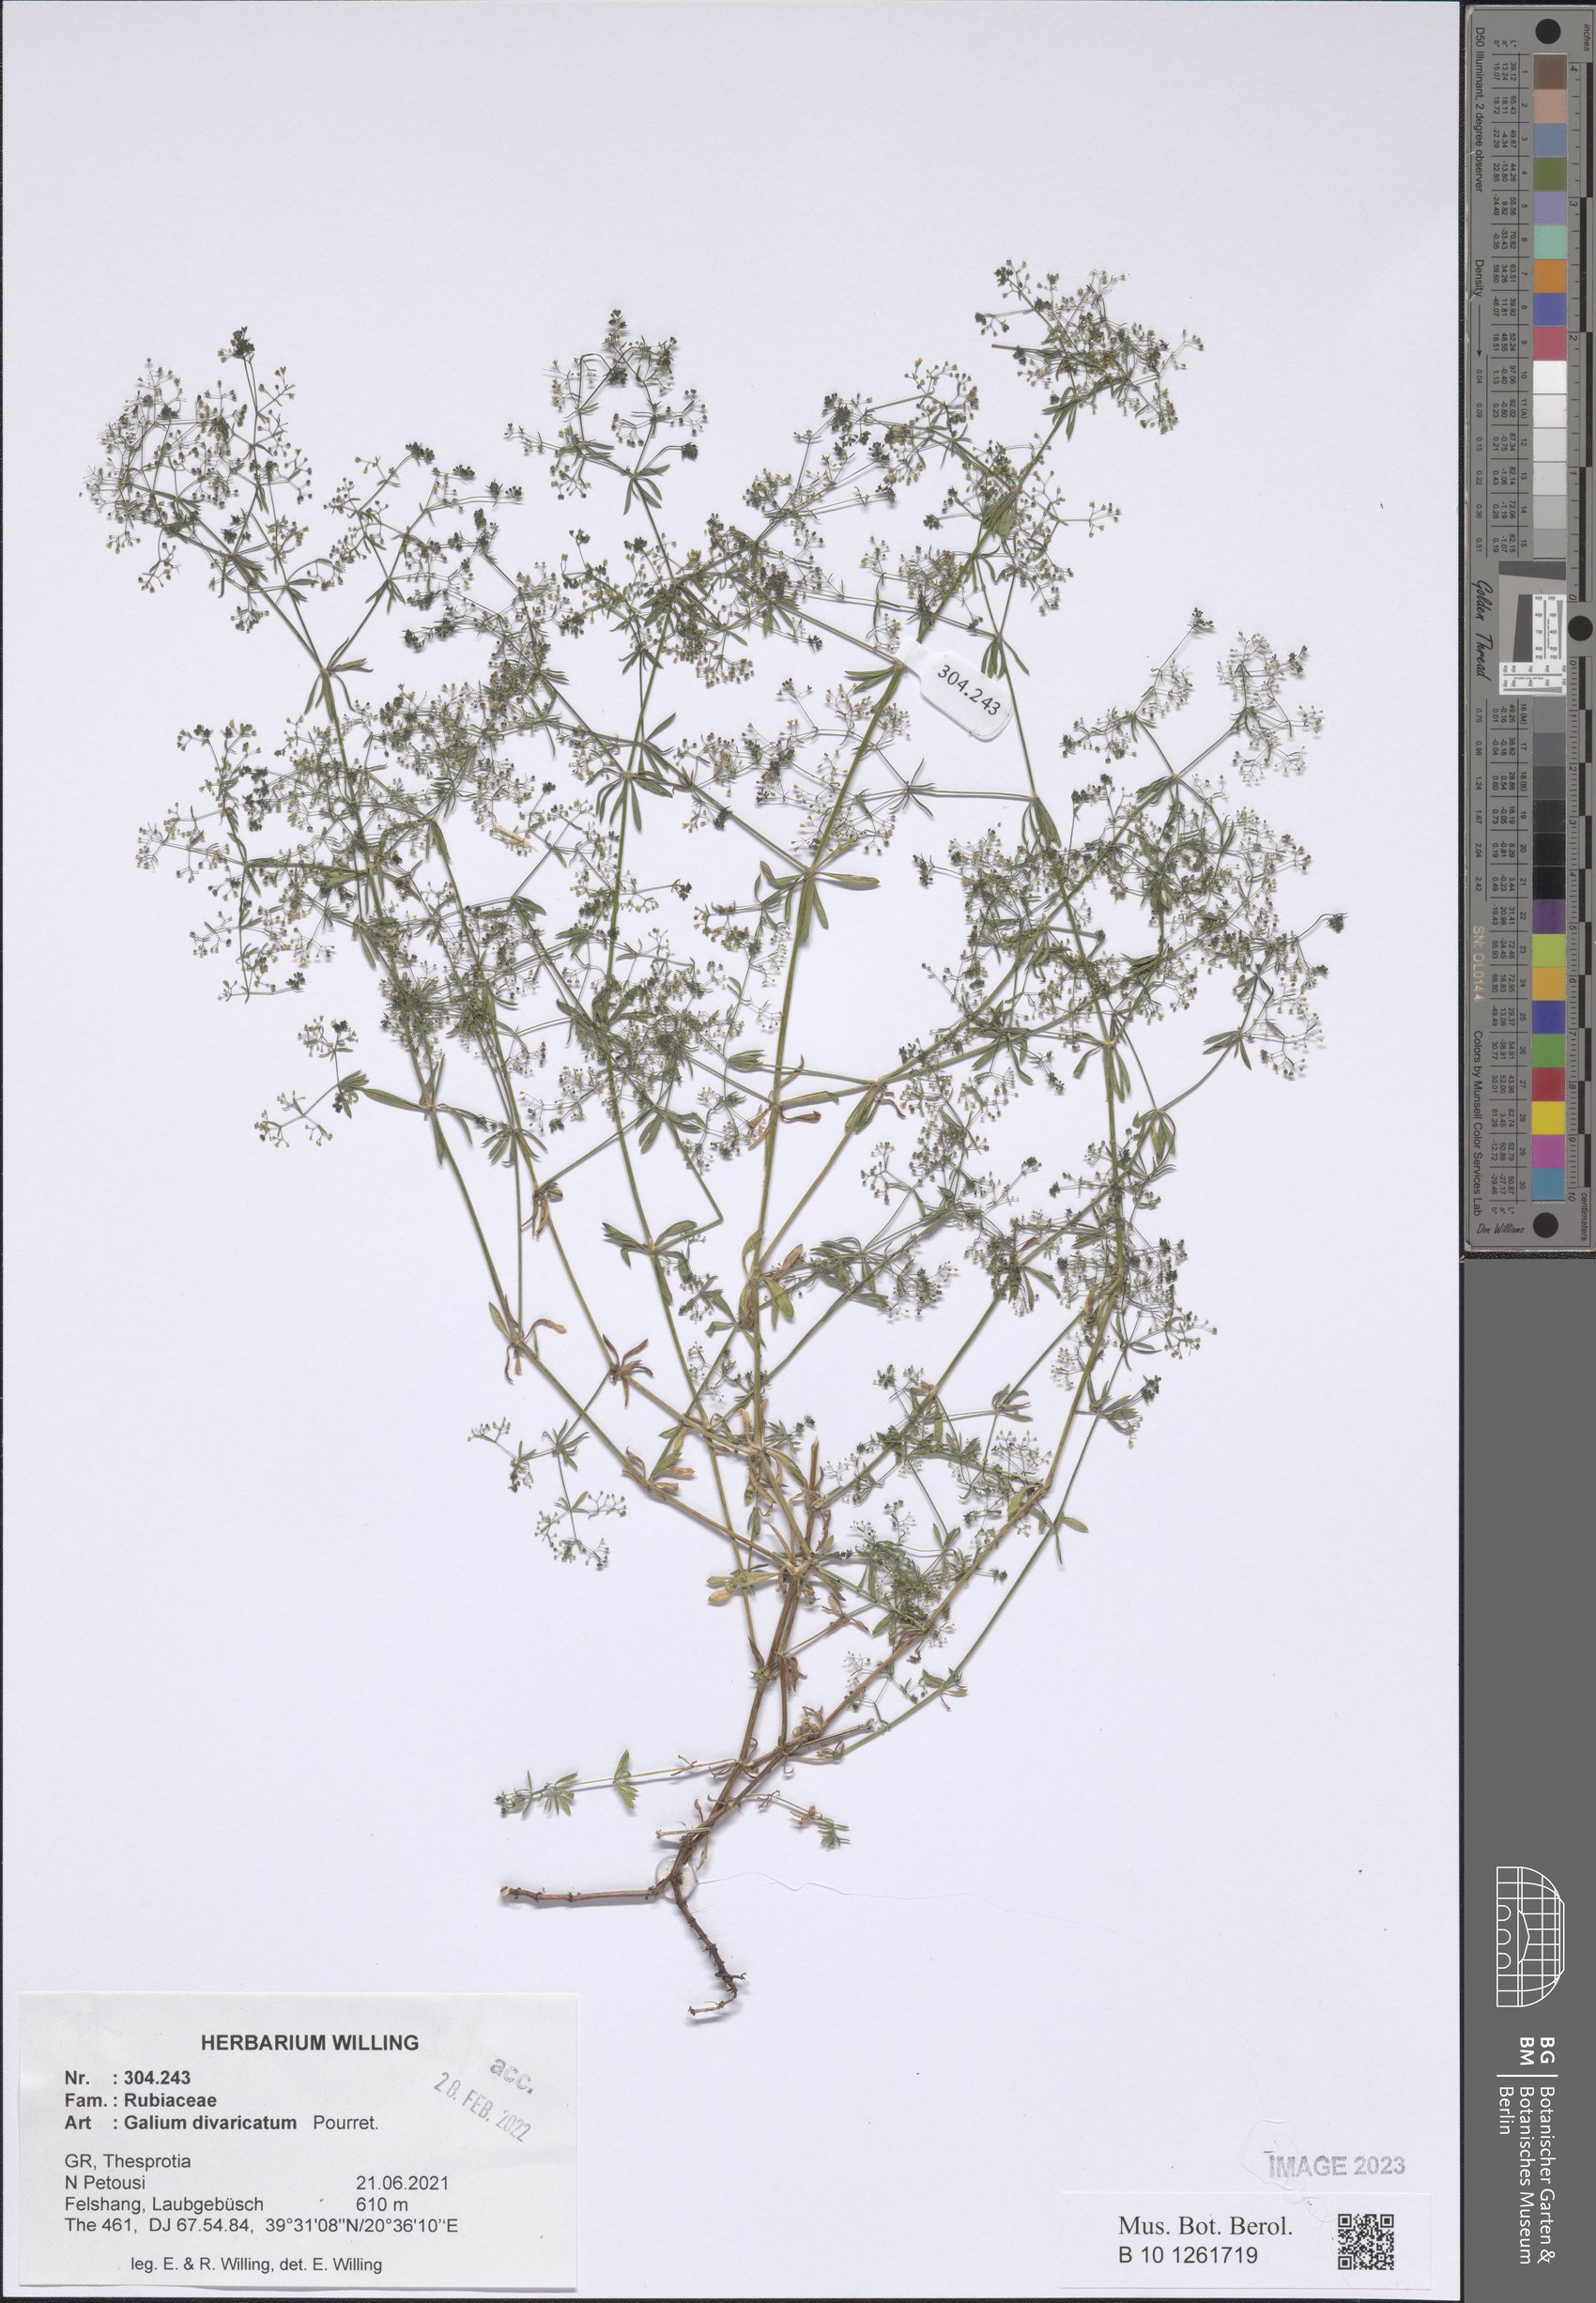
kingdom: Plantae
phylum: Tracheophyta
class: Magnoliopsida
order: Gentianales
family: Rubiaceae
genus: Galium
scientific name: Galium divaricatum
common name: Lamarck's bedstraw
